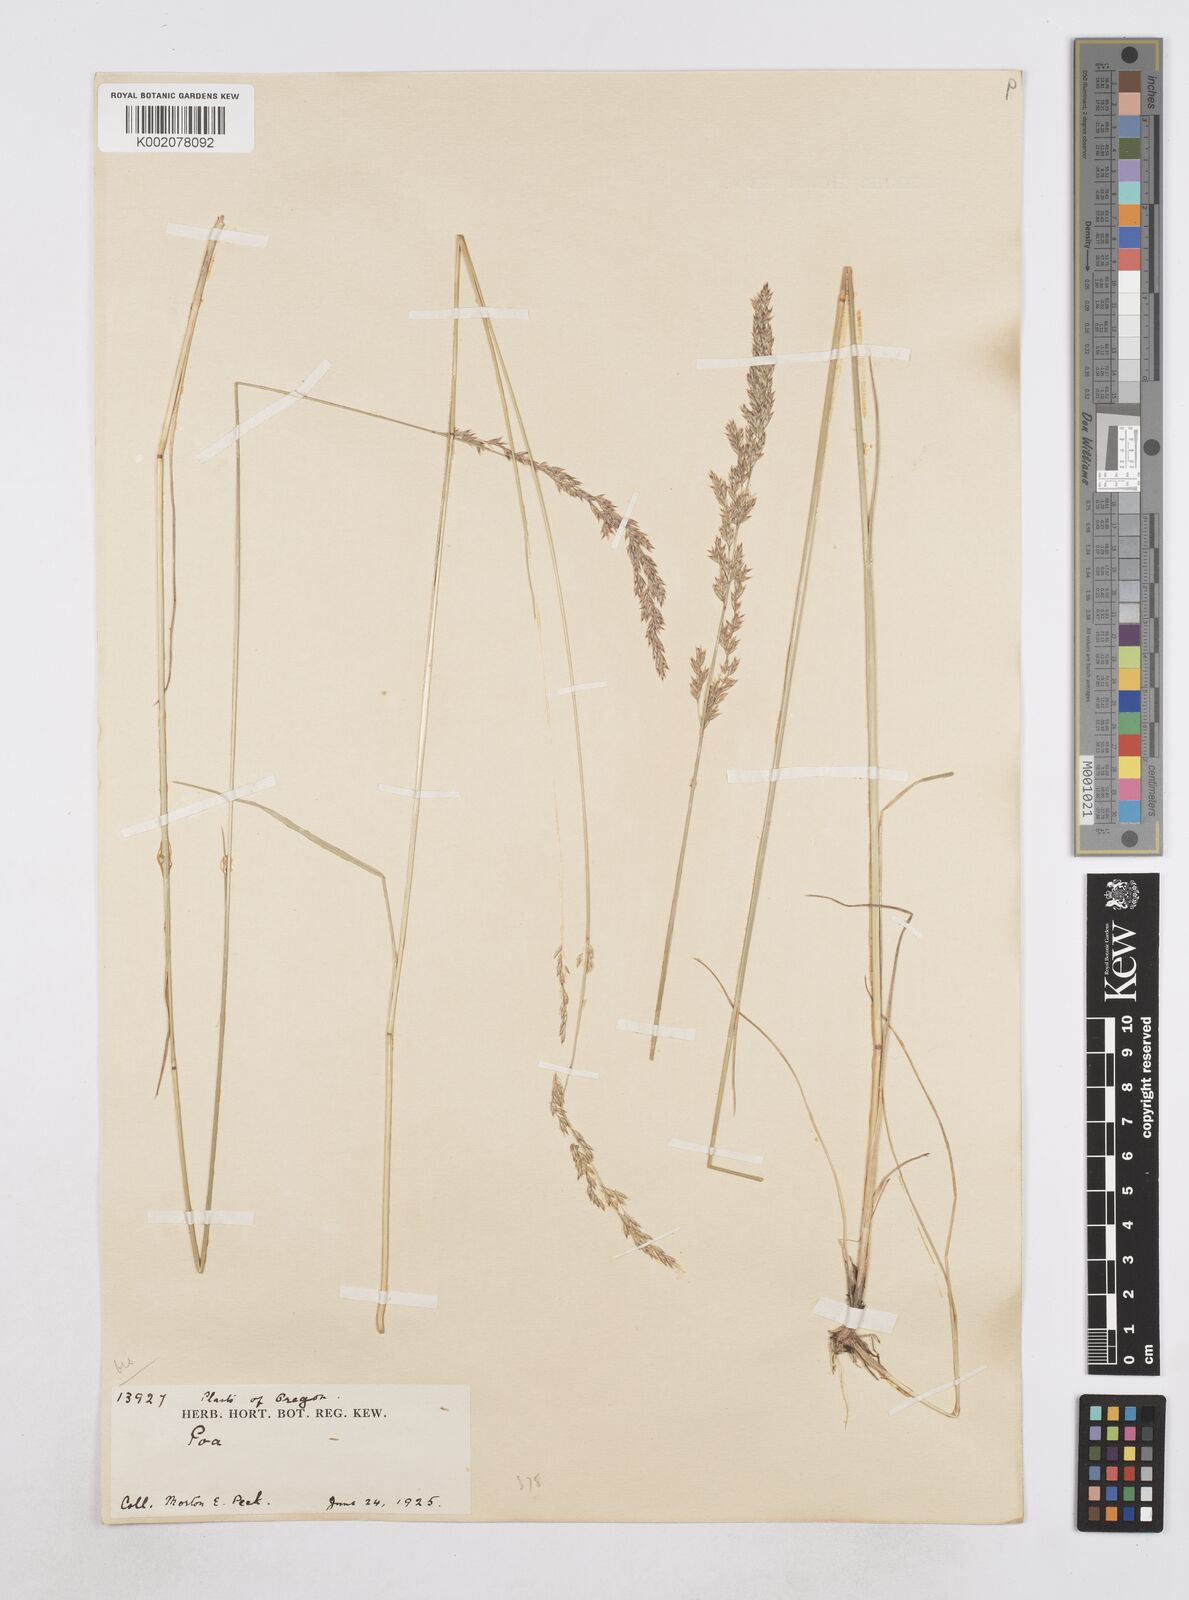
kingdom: Plantae
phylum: Tracheophyta
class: Liliopsida
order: Poales
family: Poaceae
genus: Poa
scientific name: Poa
